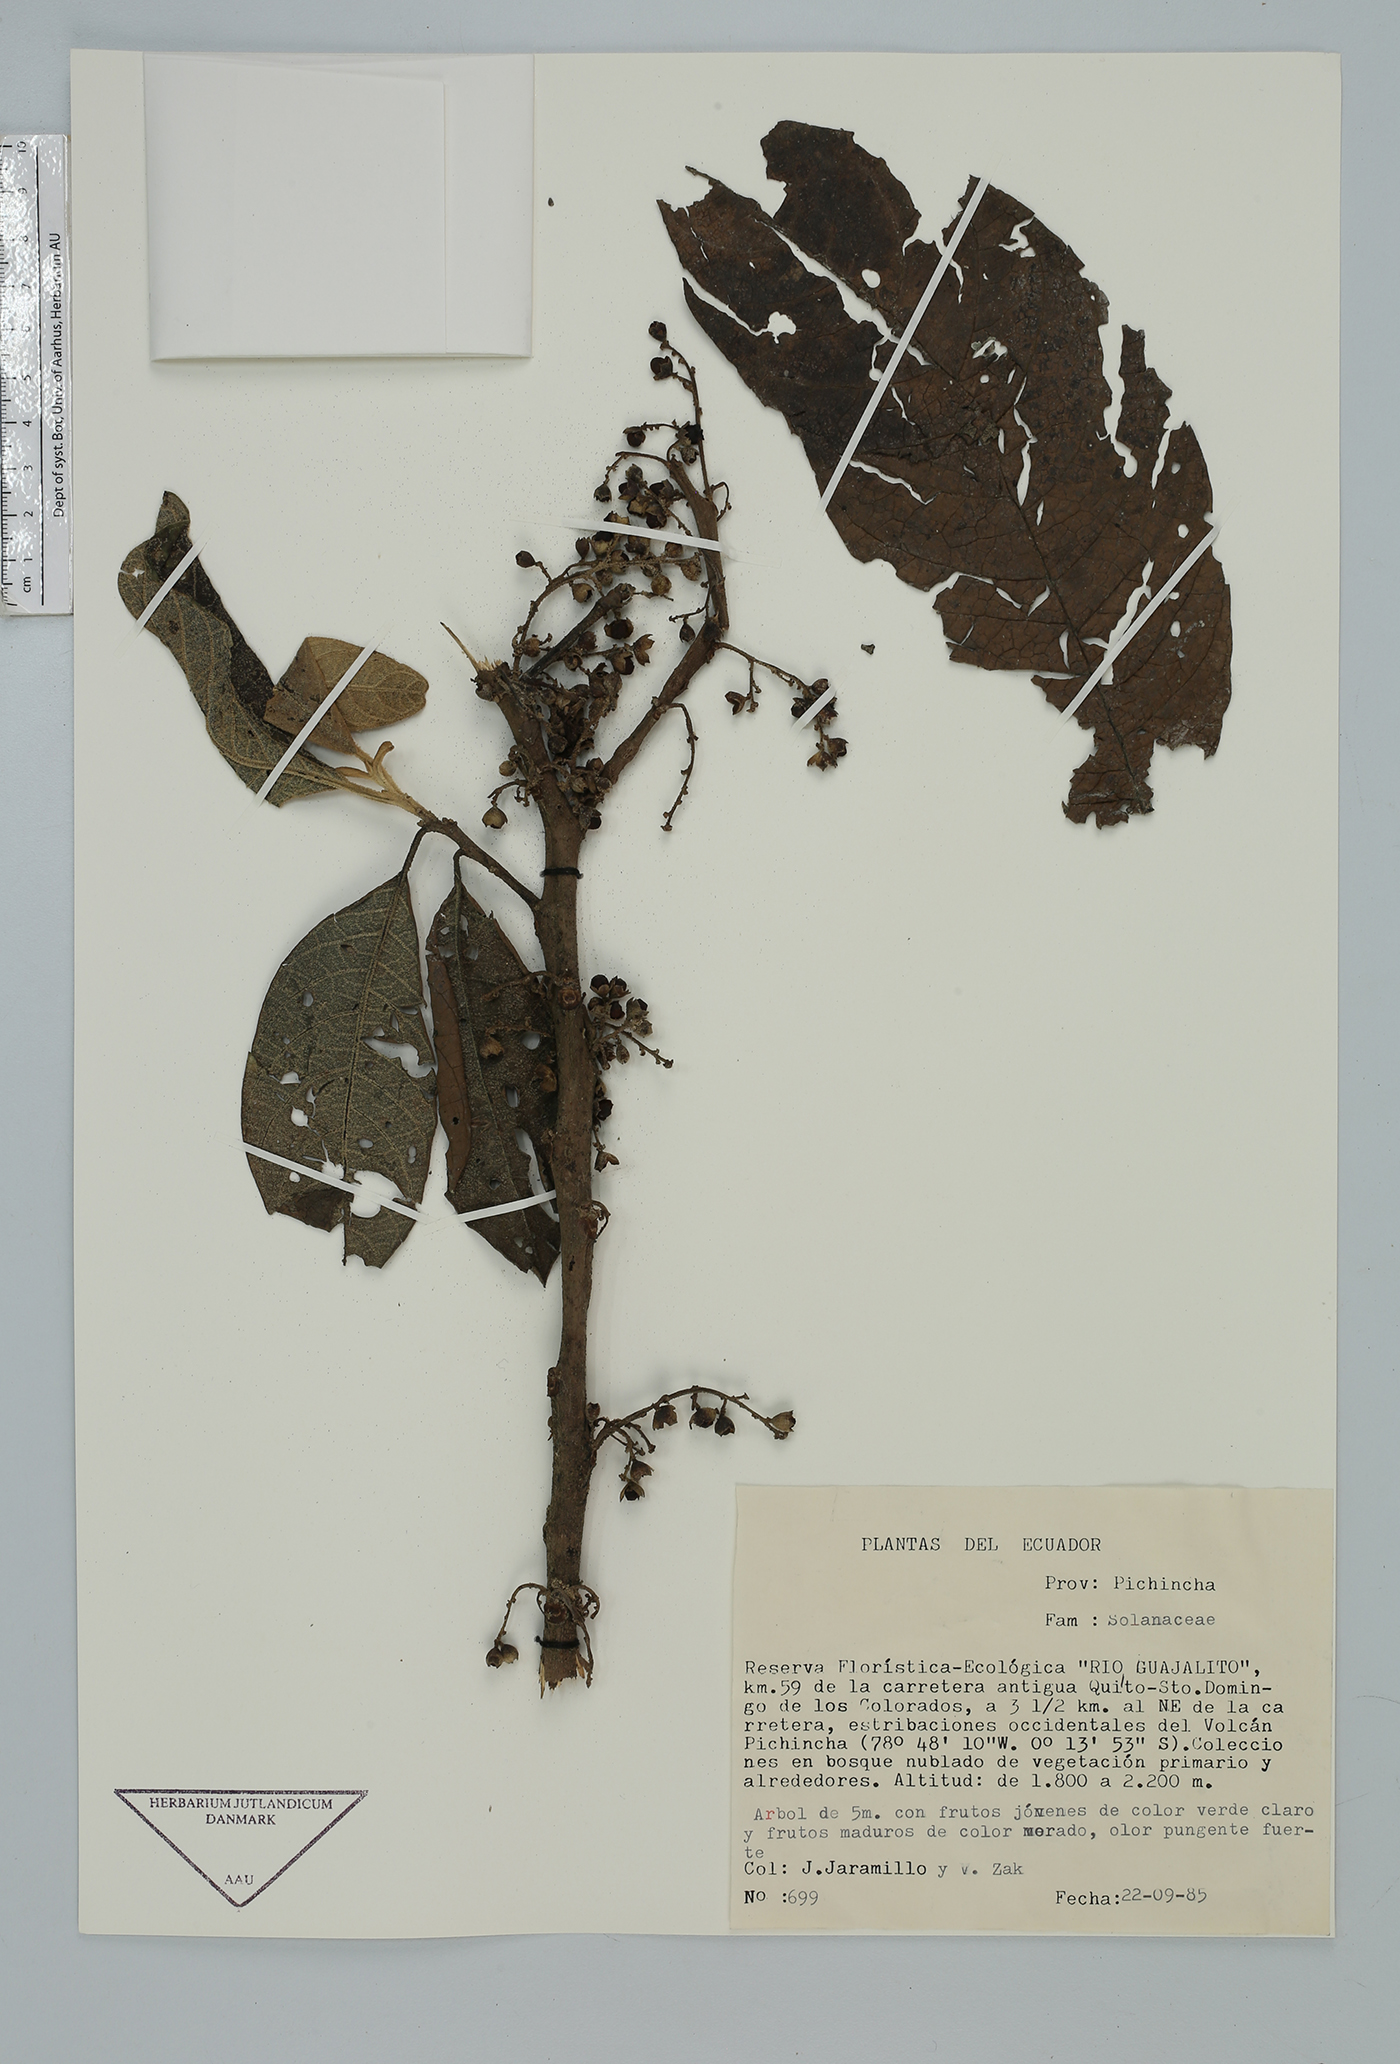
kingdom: Plantae
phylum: Tracheophyta
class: Magnoliopsida
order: Solanales
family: Solanaceae
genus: Cestrum
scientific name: Cestrum
